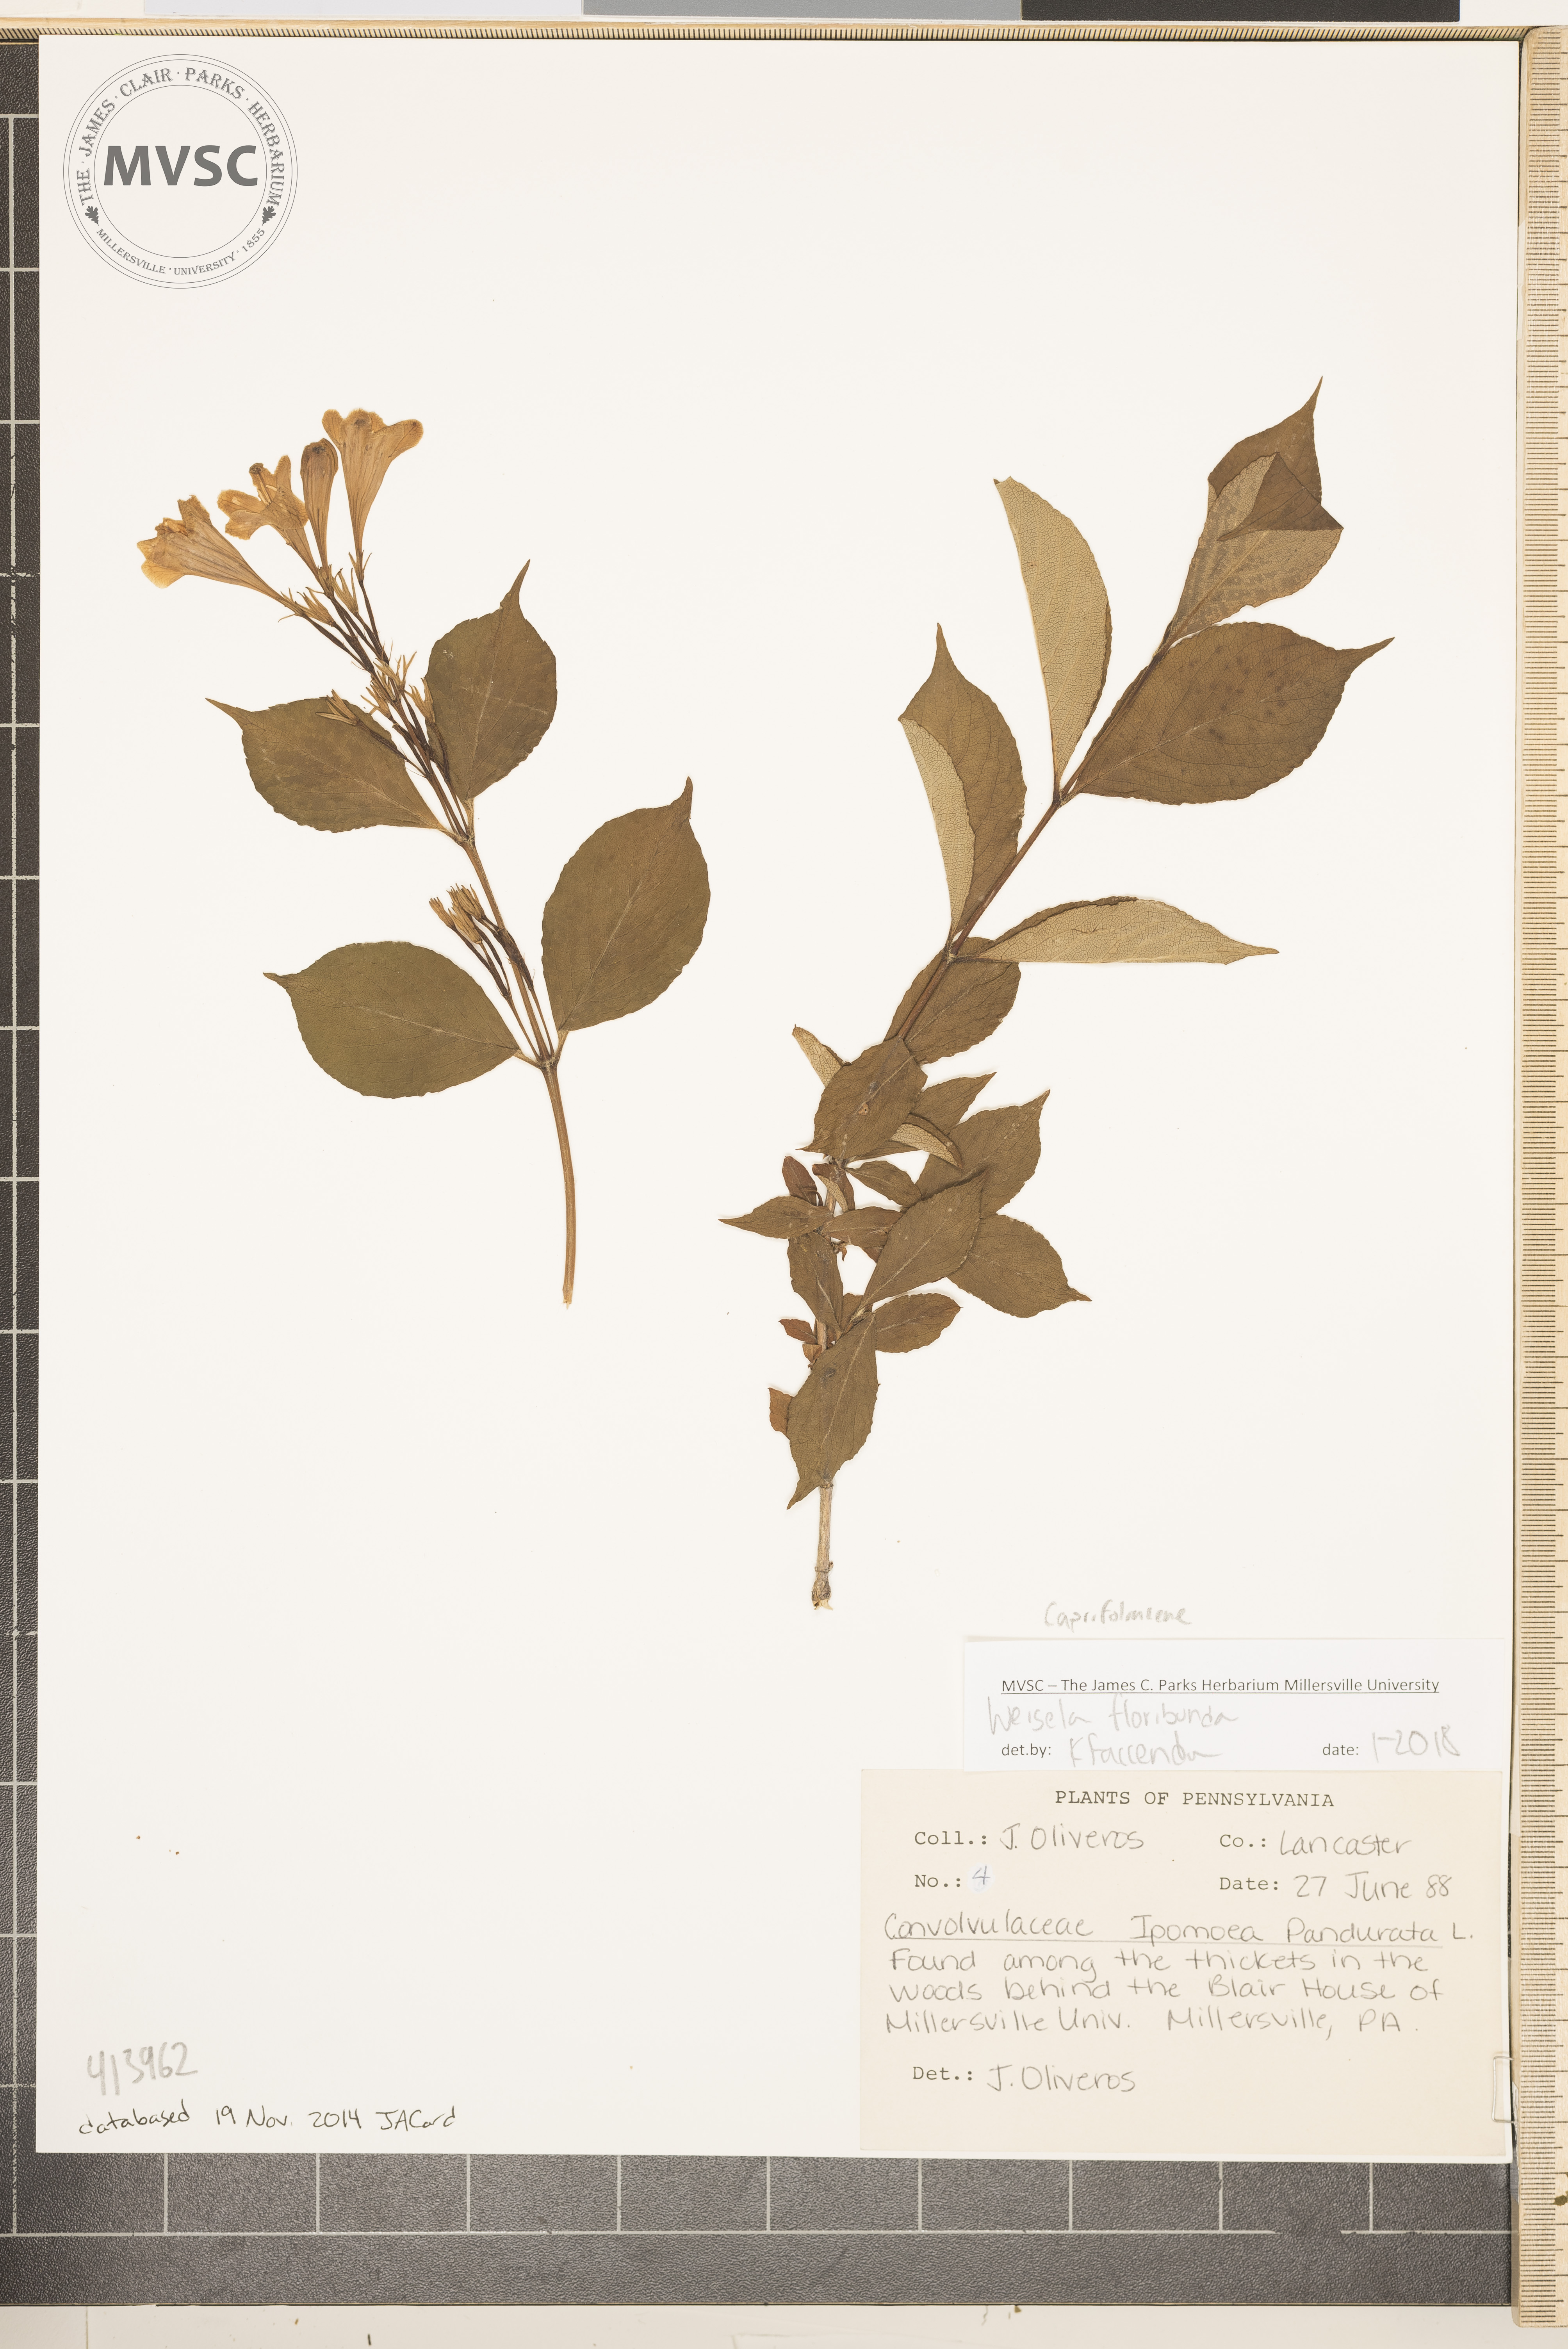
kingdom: Plantae
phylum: Tracheophyta
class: Magnoliopsida
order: Dipsacales
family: Caprifoliaceae
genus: Weigela
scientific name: Weigela floribunda
